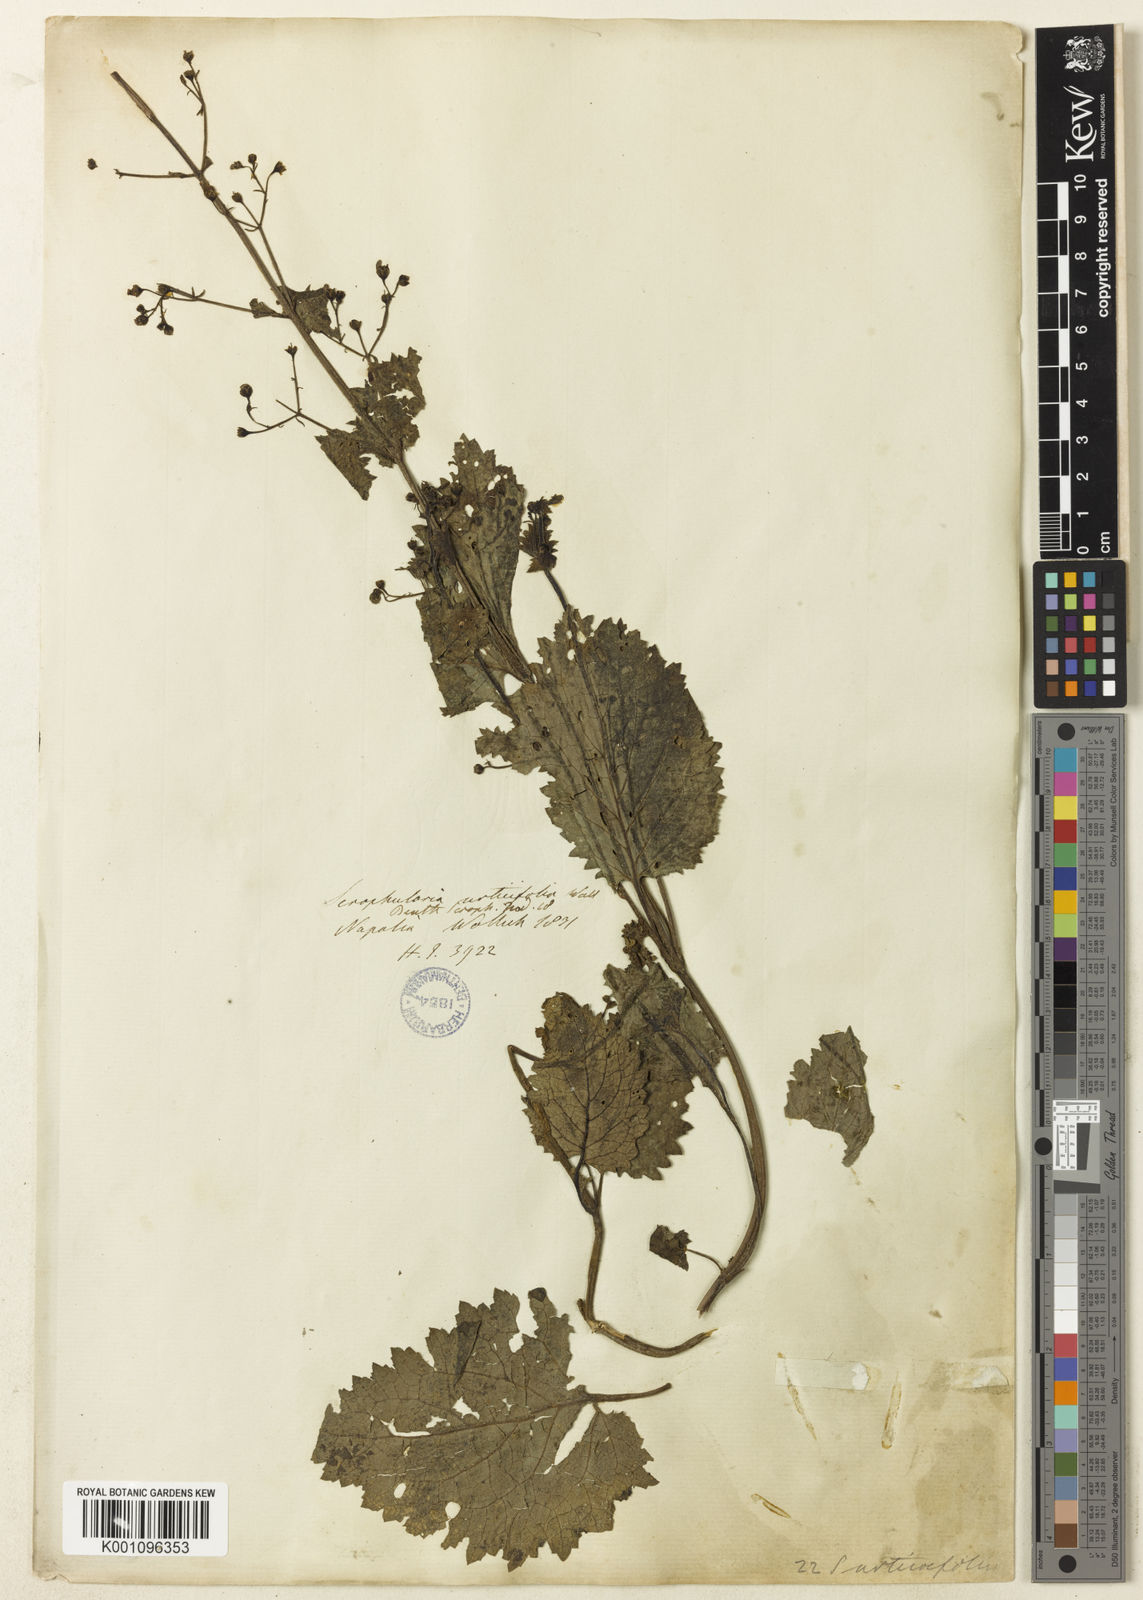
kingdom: Plantae
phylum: Tracheophyta
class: Magnoliopsida
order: Lamiales
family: Scrophulariaceae
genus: Scrophularia
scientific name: Scrophularia
